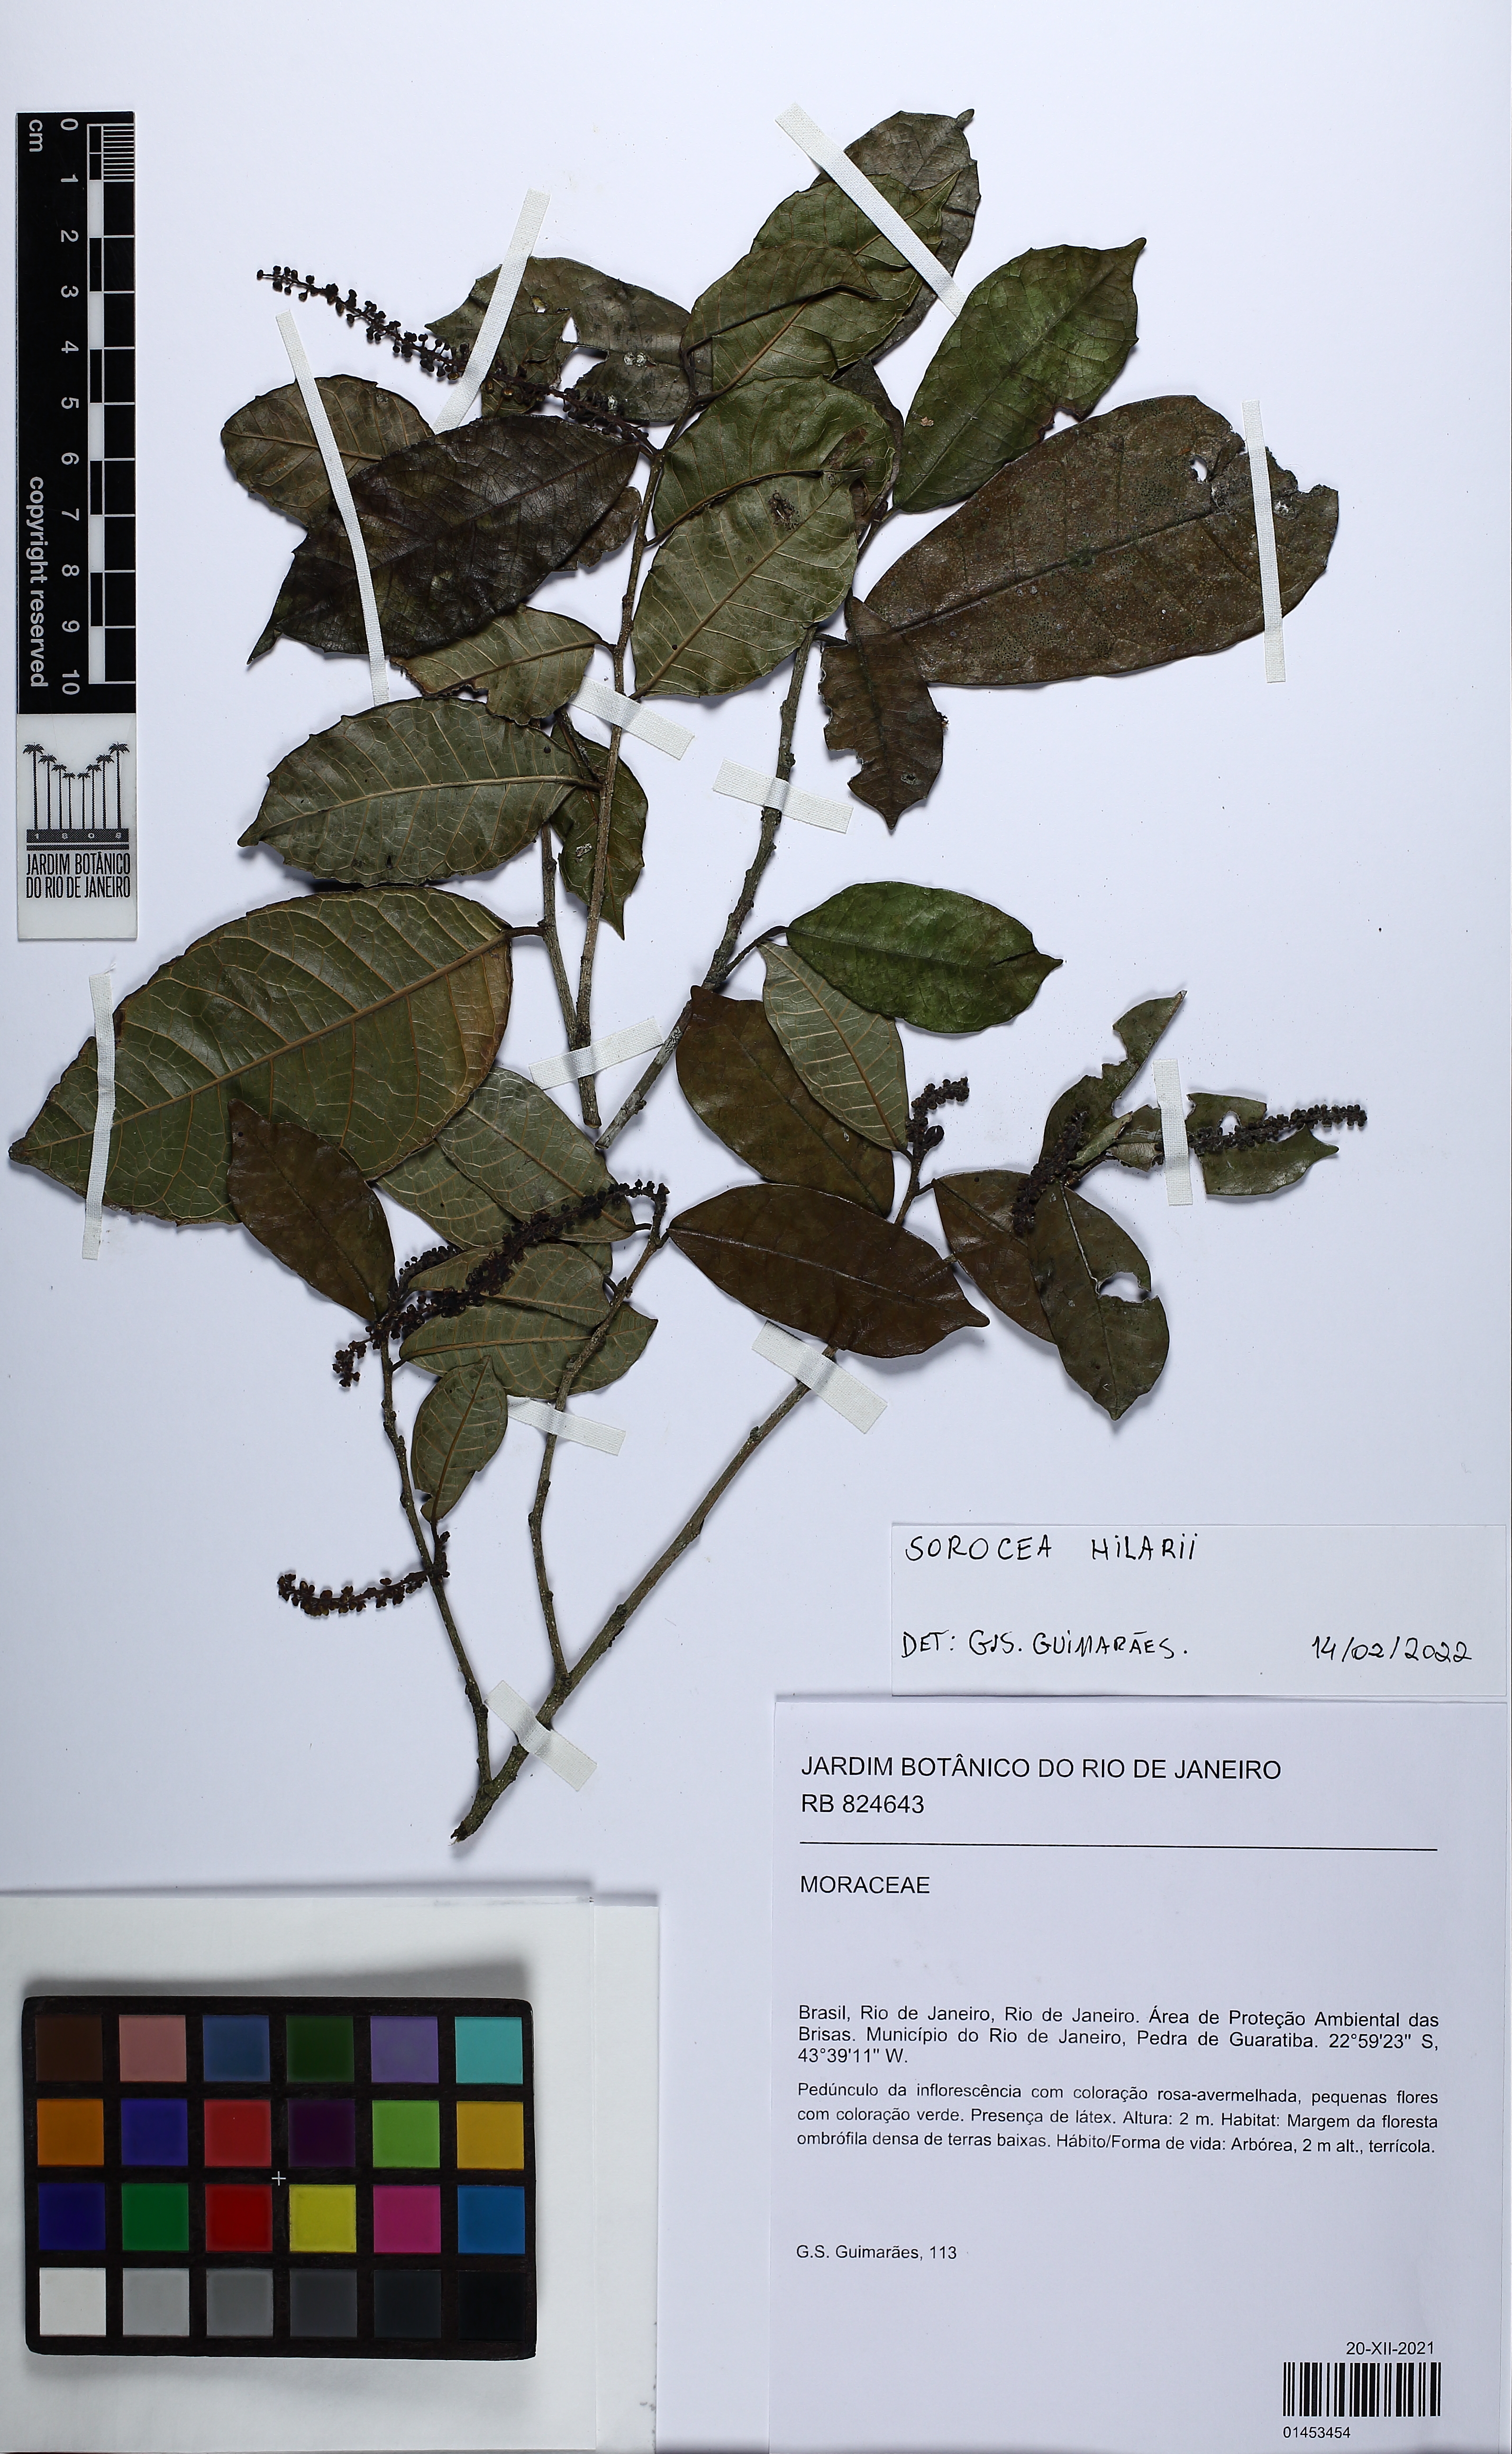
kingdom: Plantae
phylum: Tracheophyta
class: Magnoliopsida
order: Rosales
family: Moraceae
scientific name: Moraceae
